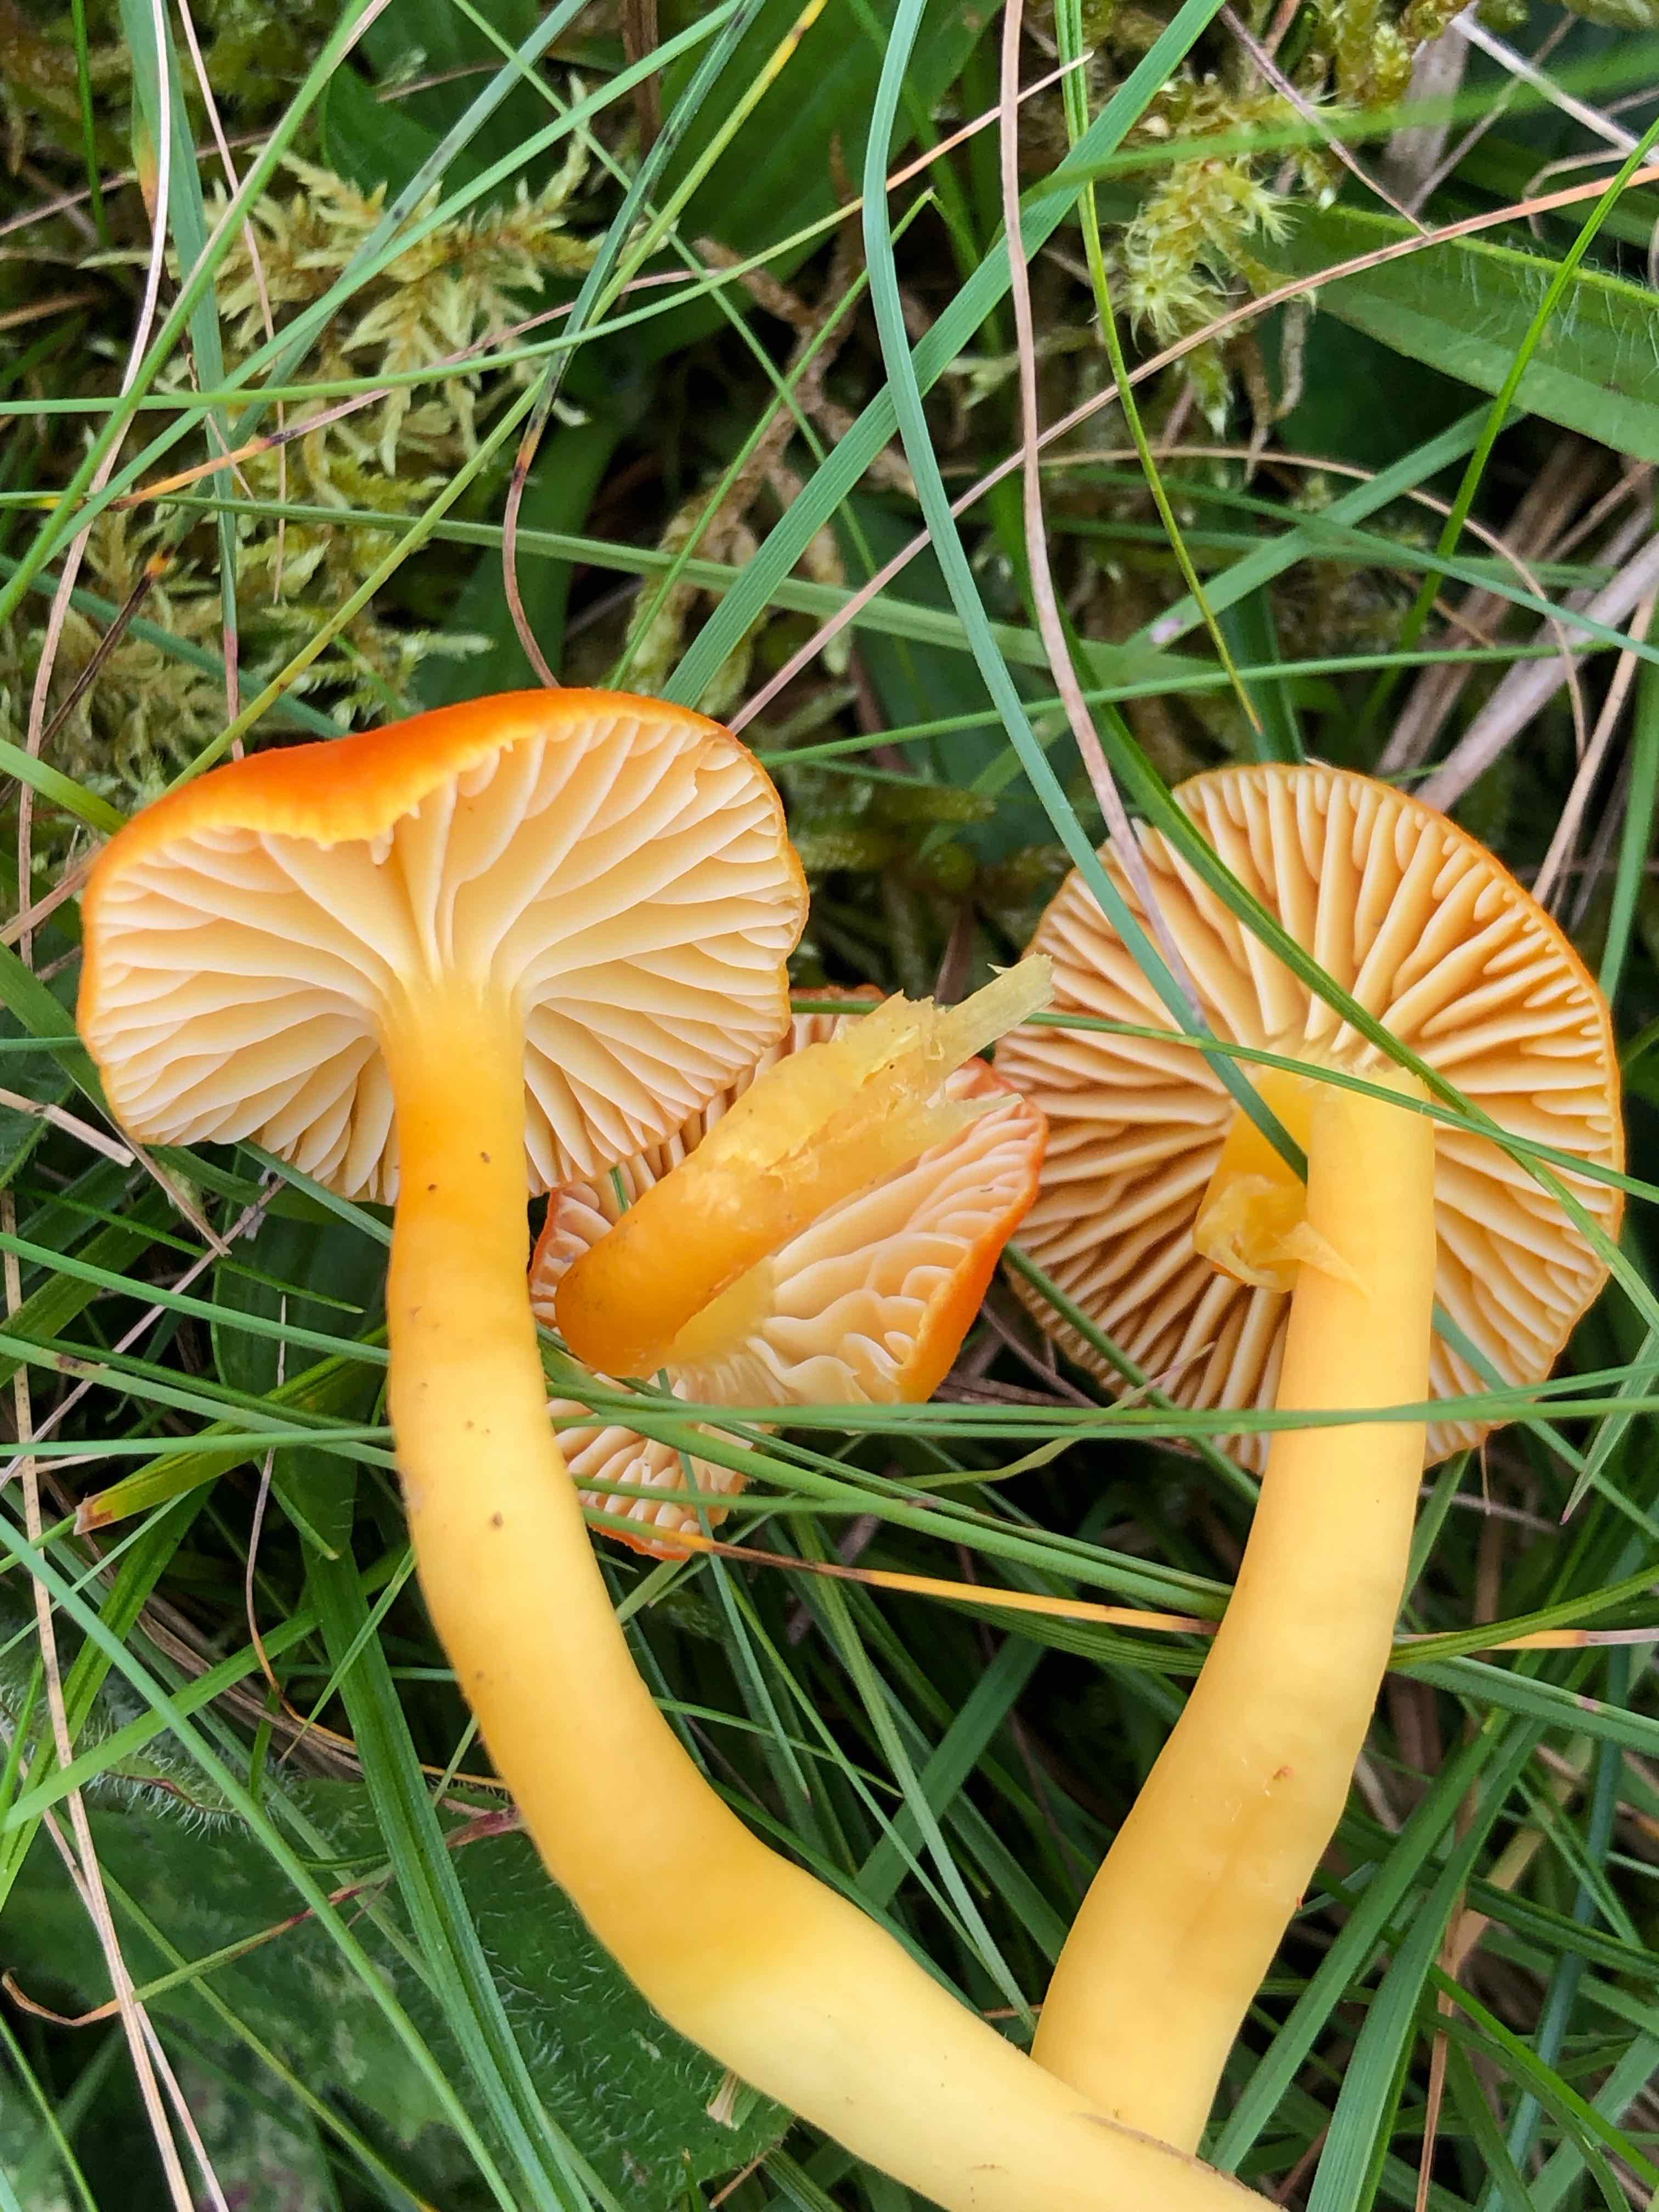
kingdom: Fungi
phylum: Basidiomycota
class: Agaricomycetes
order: Agaricales
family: Hygrophoraceae
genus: Hygrocybe
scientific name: Hygrocybe reidii
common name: honning-vokshat
